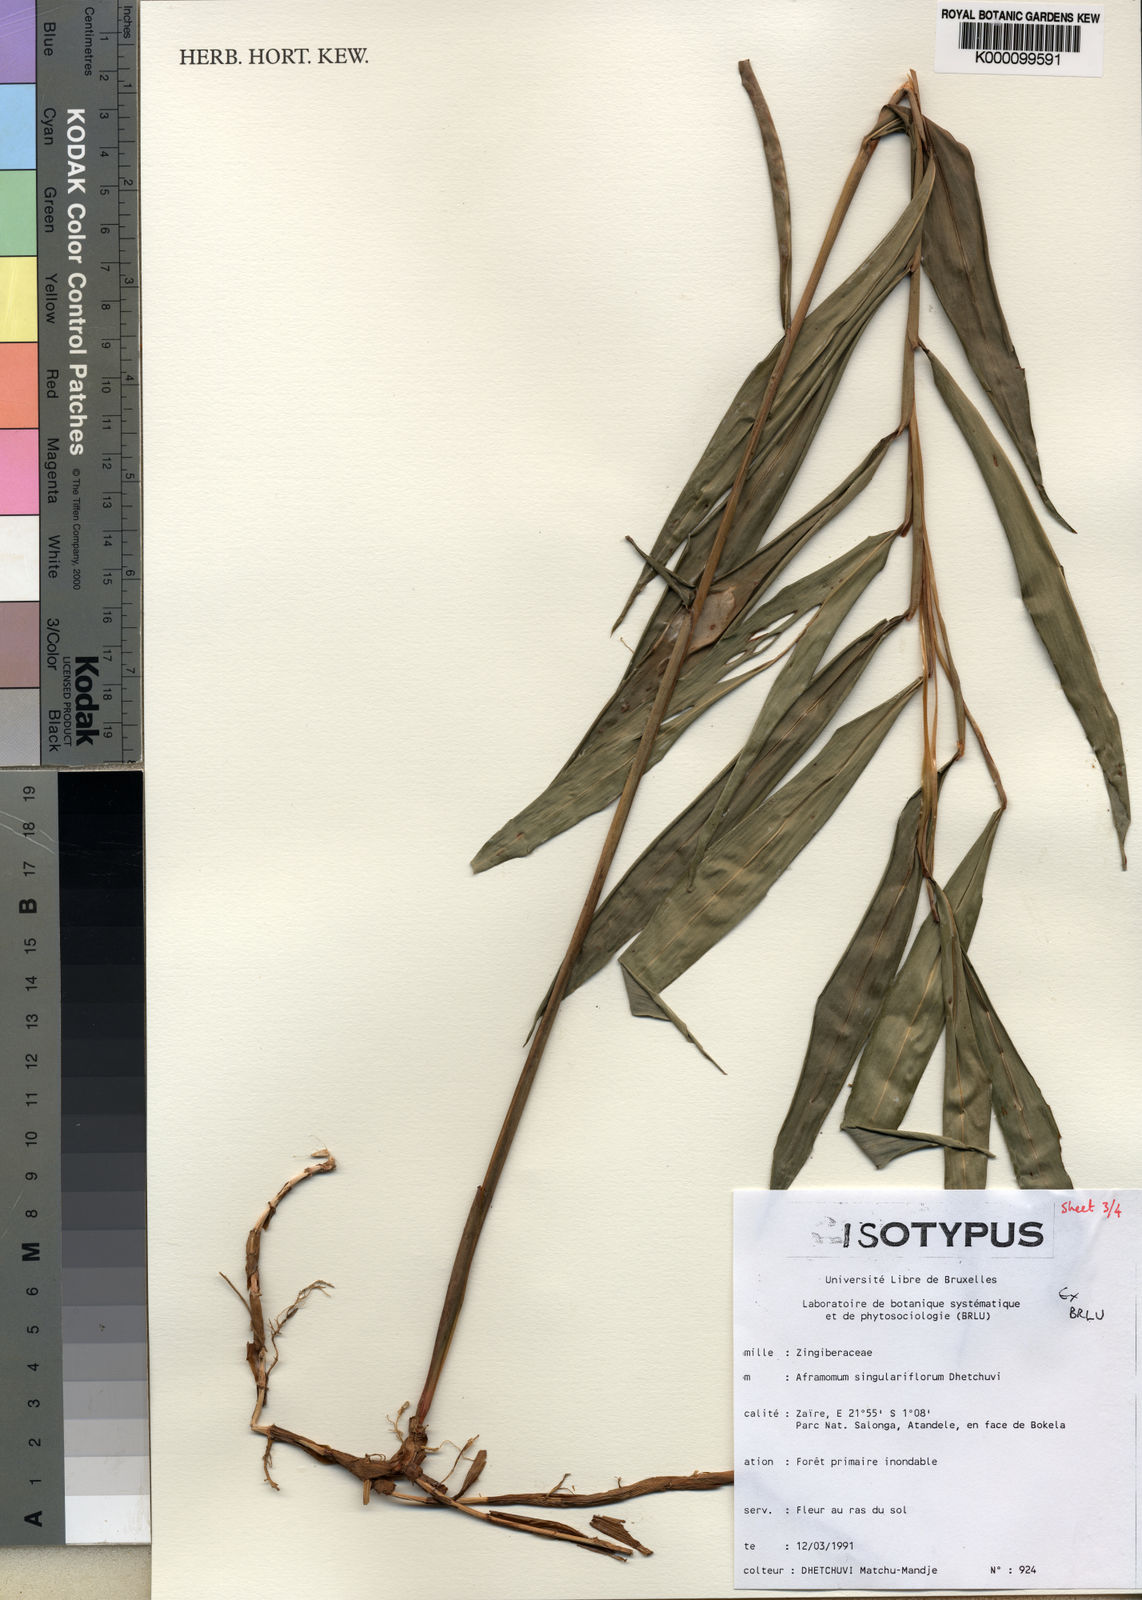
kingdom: Plantae
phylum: Tracheophyta
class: Liliopsida
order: Zingiberales
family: Zingiberaceae
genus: Aframomum
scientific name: Aframomum singulariflorum
